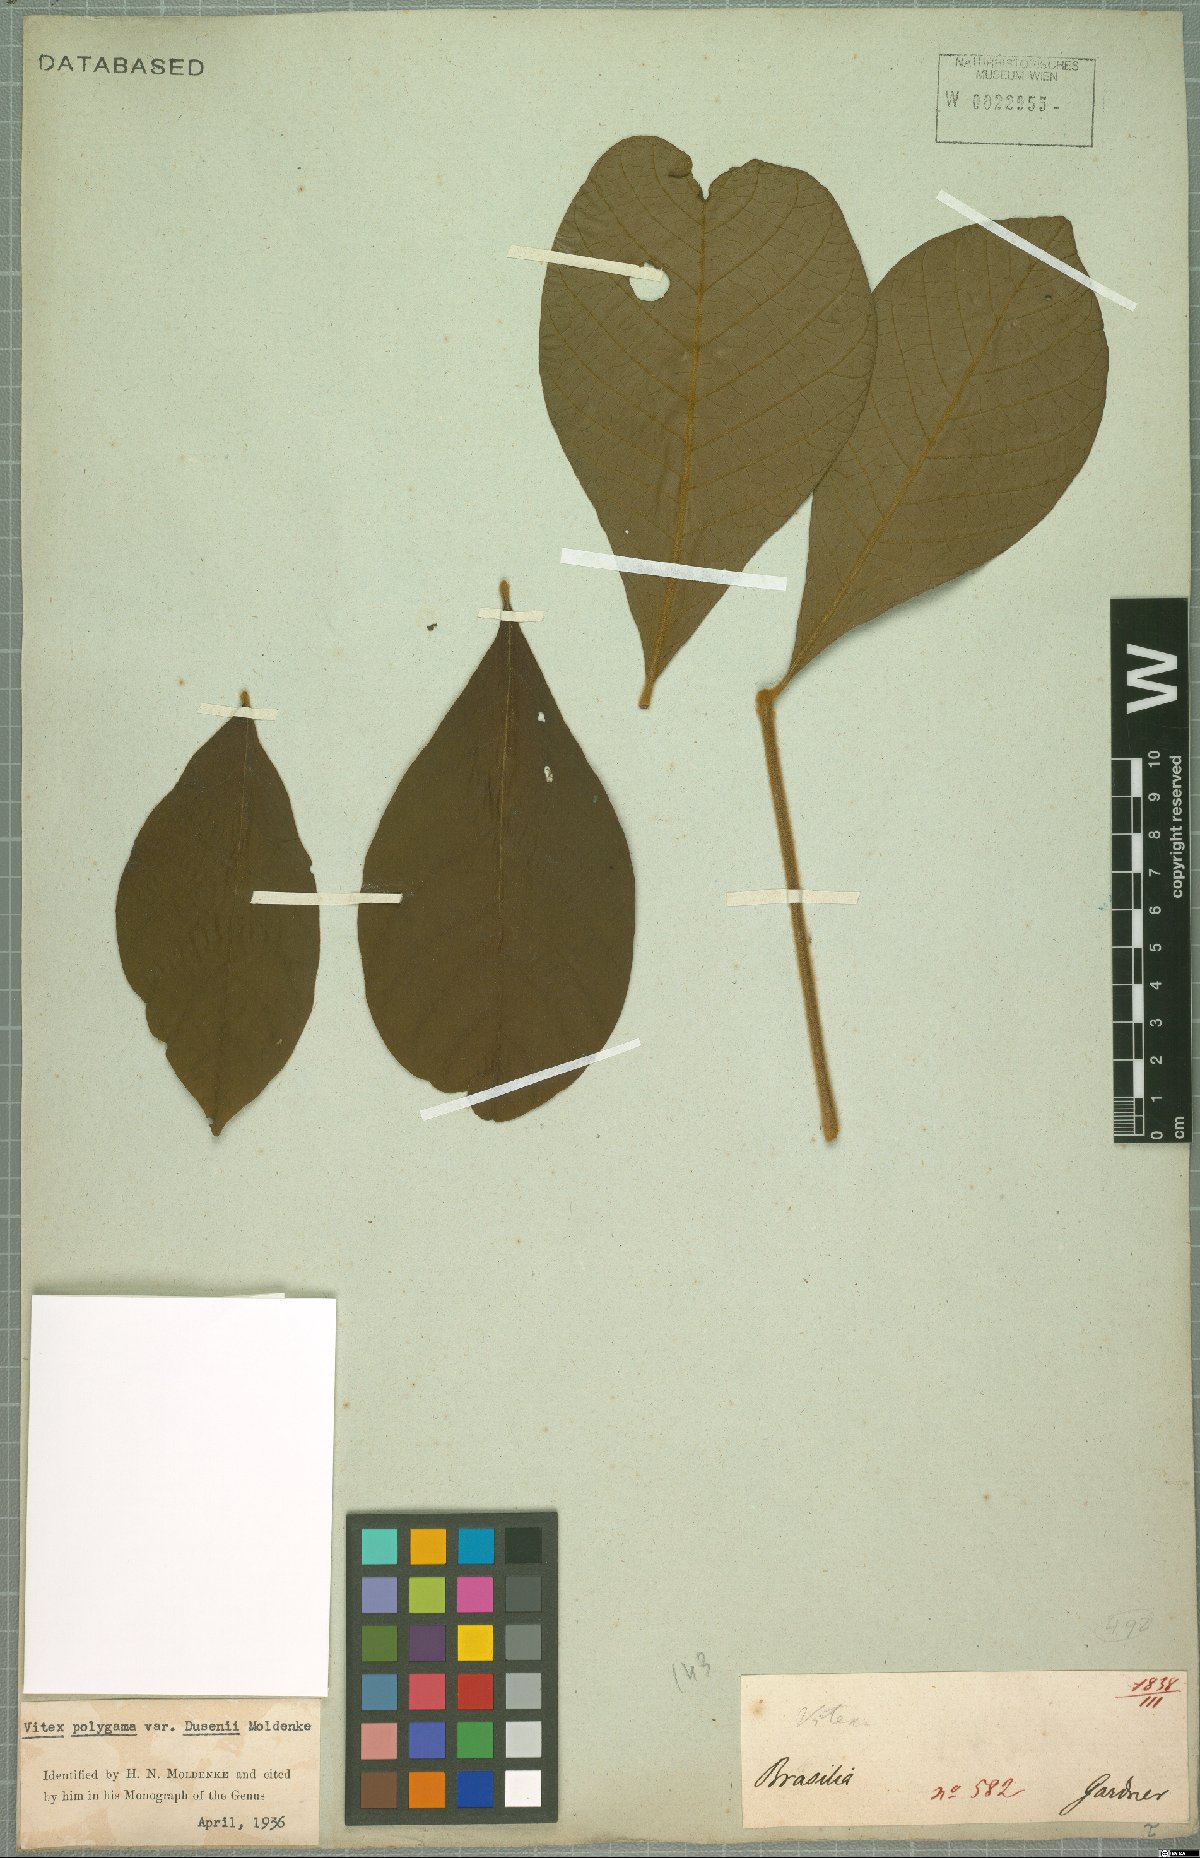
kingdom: Plantae
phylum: Tracheophyta
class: Magnoliopsida
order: Lamiales
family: Lamiaceae
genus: Vitex
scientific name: Vitex polygama
